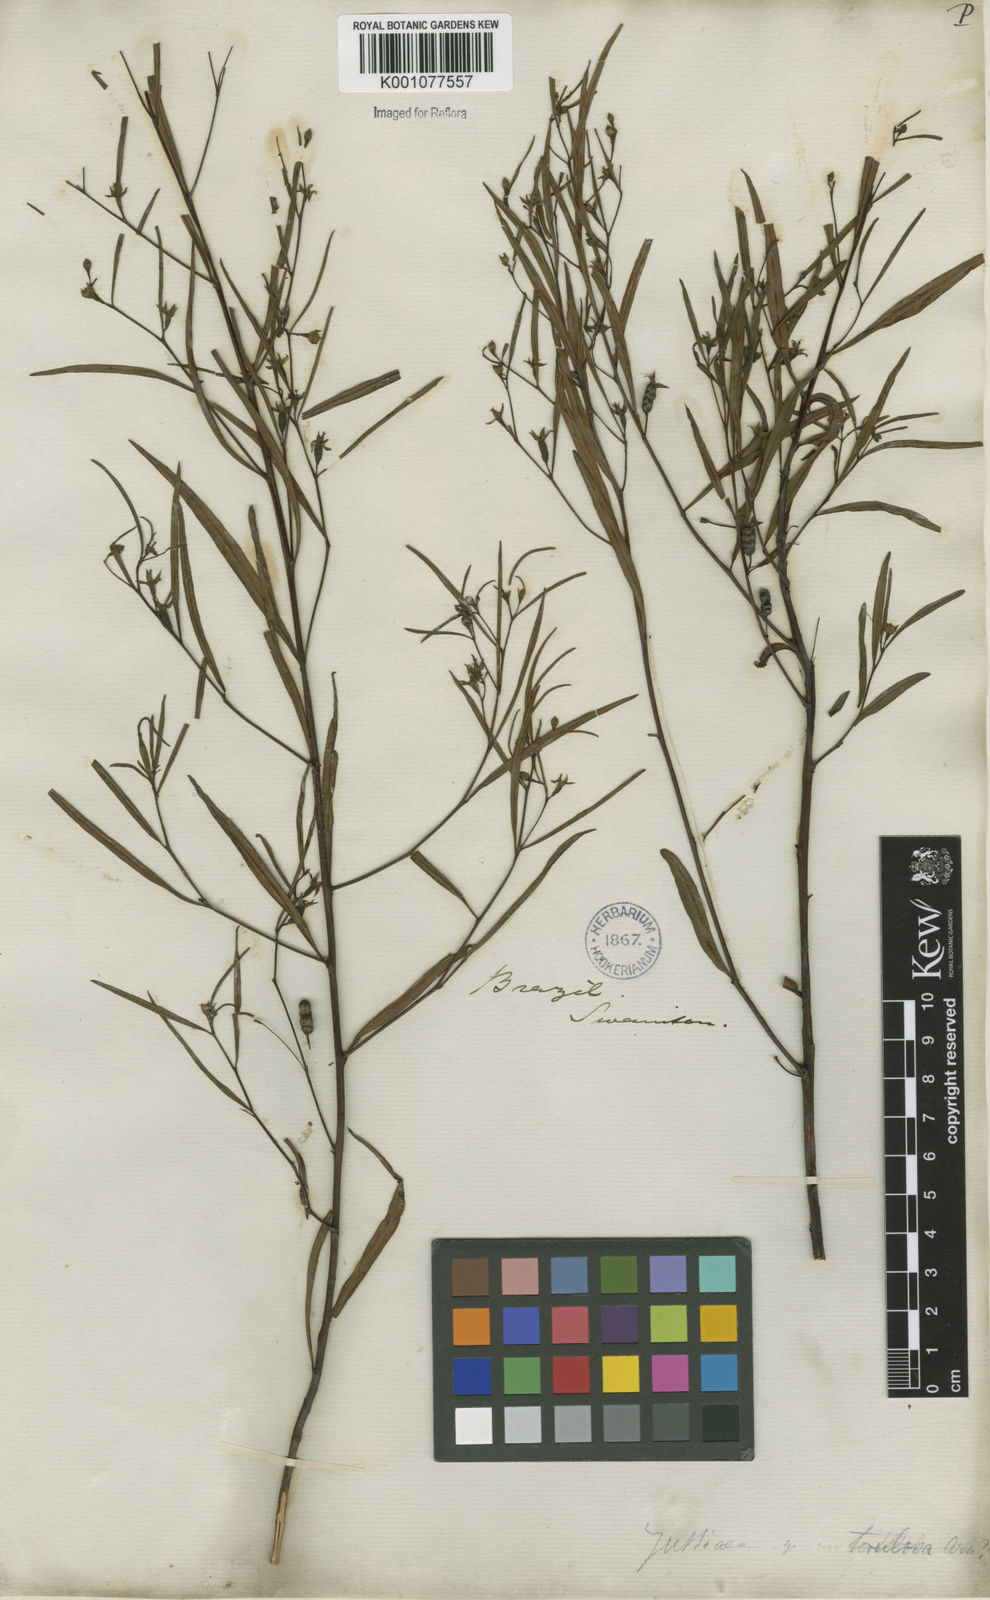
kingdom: Plantae
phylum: Tracheophyta
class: Magnoliopsida
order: Myrtales
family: Onagraceae
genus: Ludwigia
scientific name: Ludwigia torulosa
